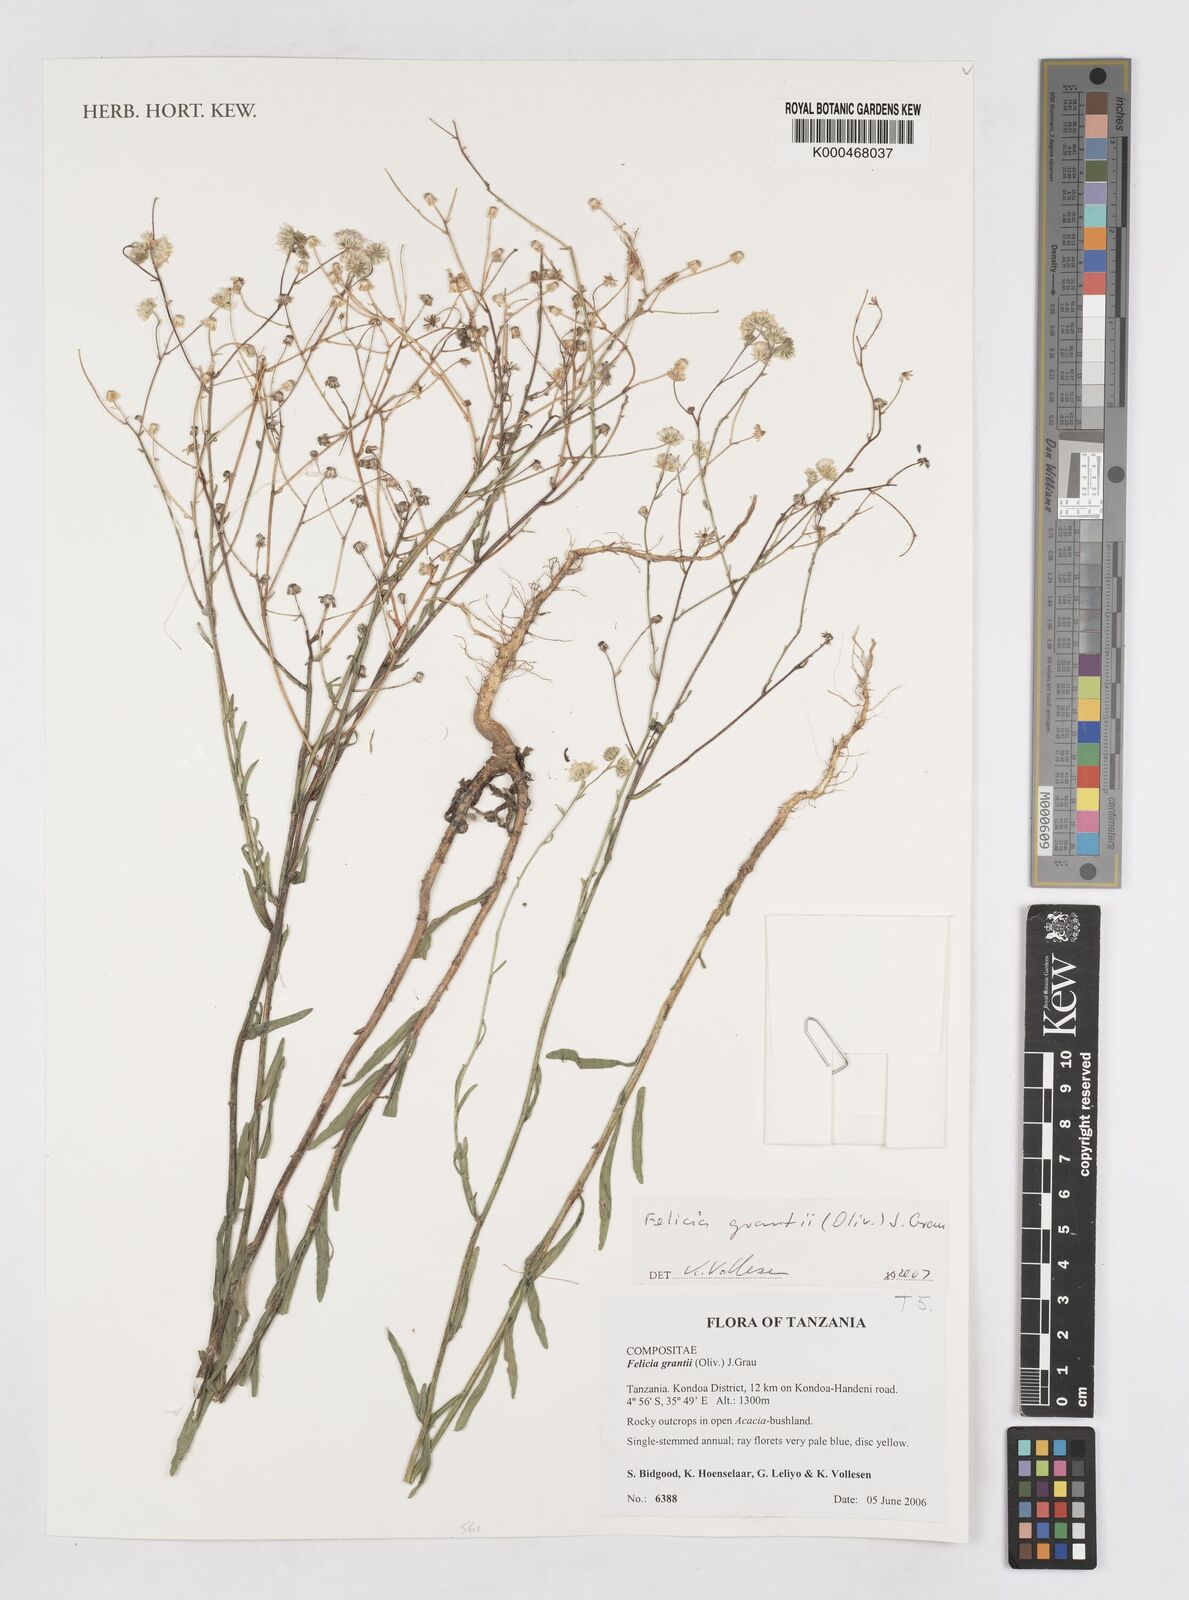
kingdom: Plantae
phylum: Tracheophyta
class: Magnoliopsida
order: Asterales
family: Asteraceae
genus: Felicia
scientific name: Felicia grantii
